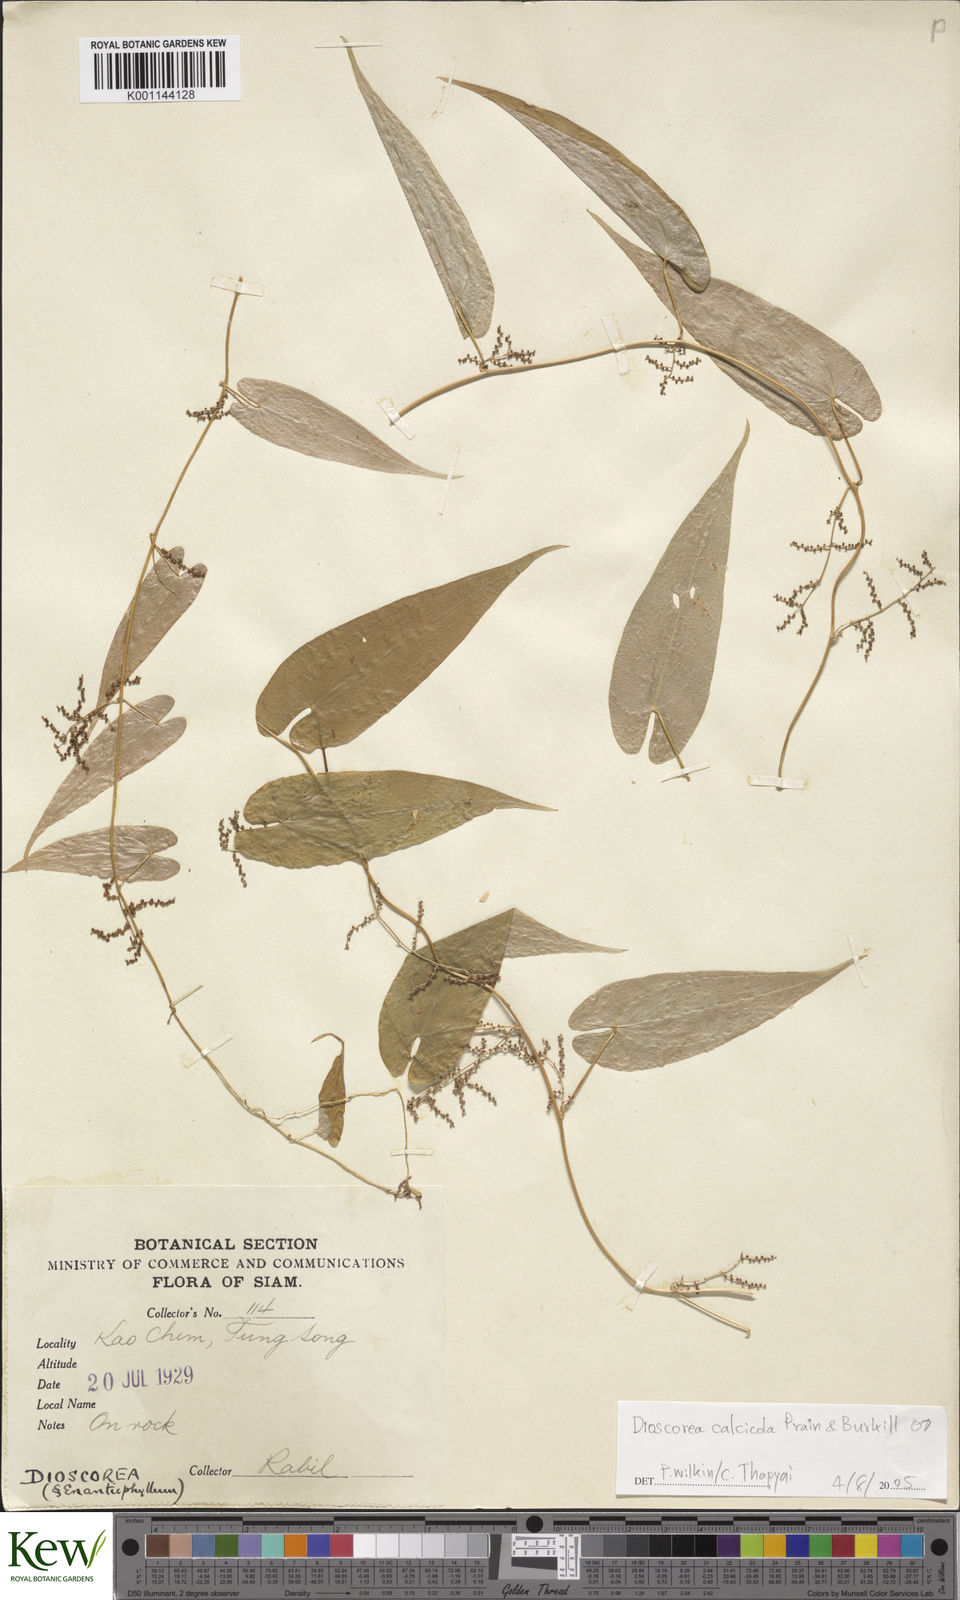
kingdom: Plantae
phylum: Tracheophyta
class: Liliopsida
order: Dioscoreales
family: Dioscoreaceae
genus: Dioscorea
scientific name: Dioscorea calcicola
